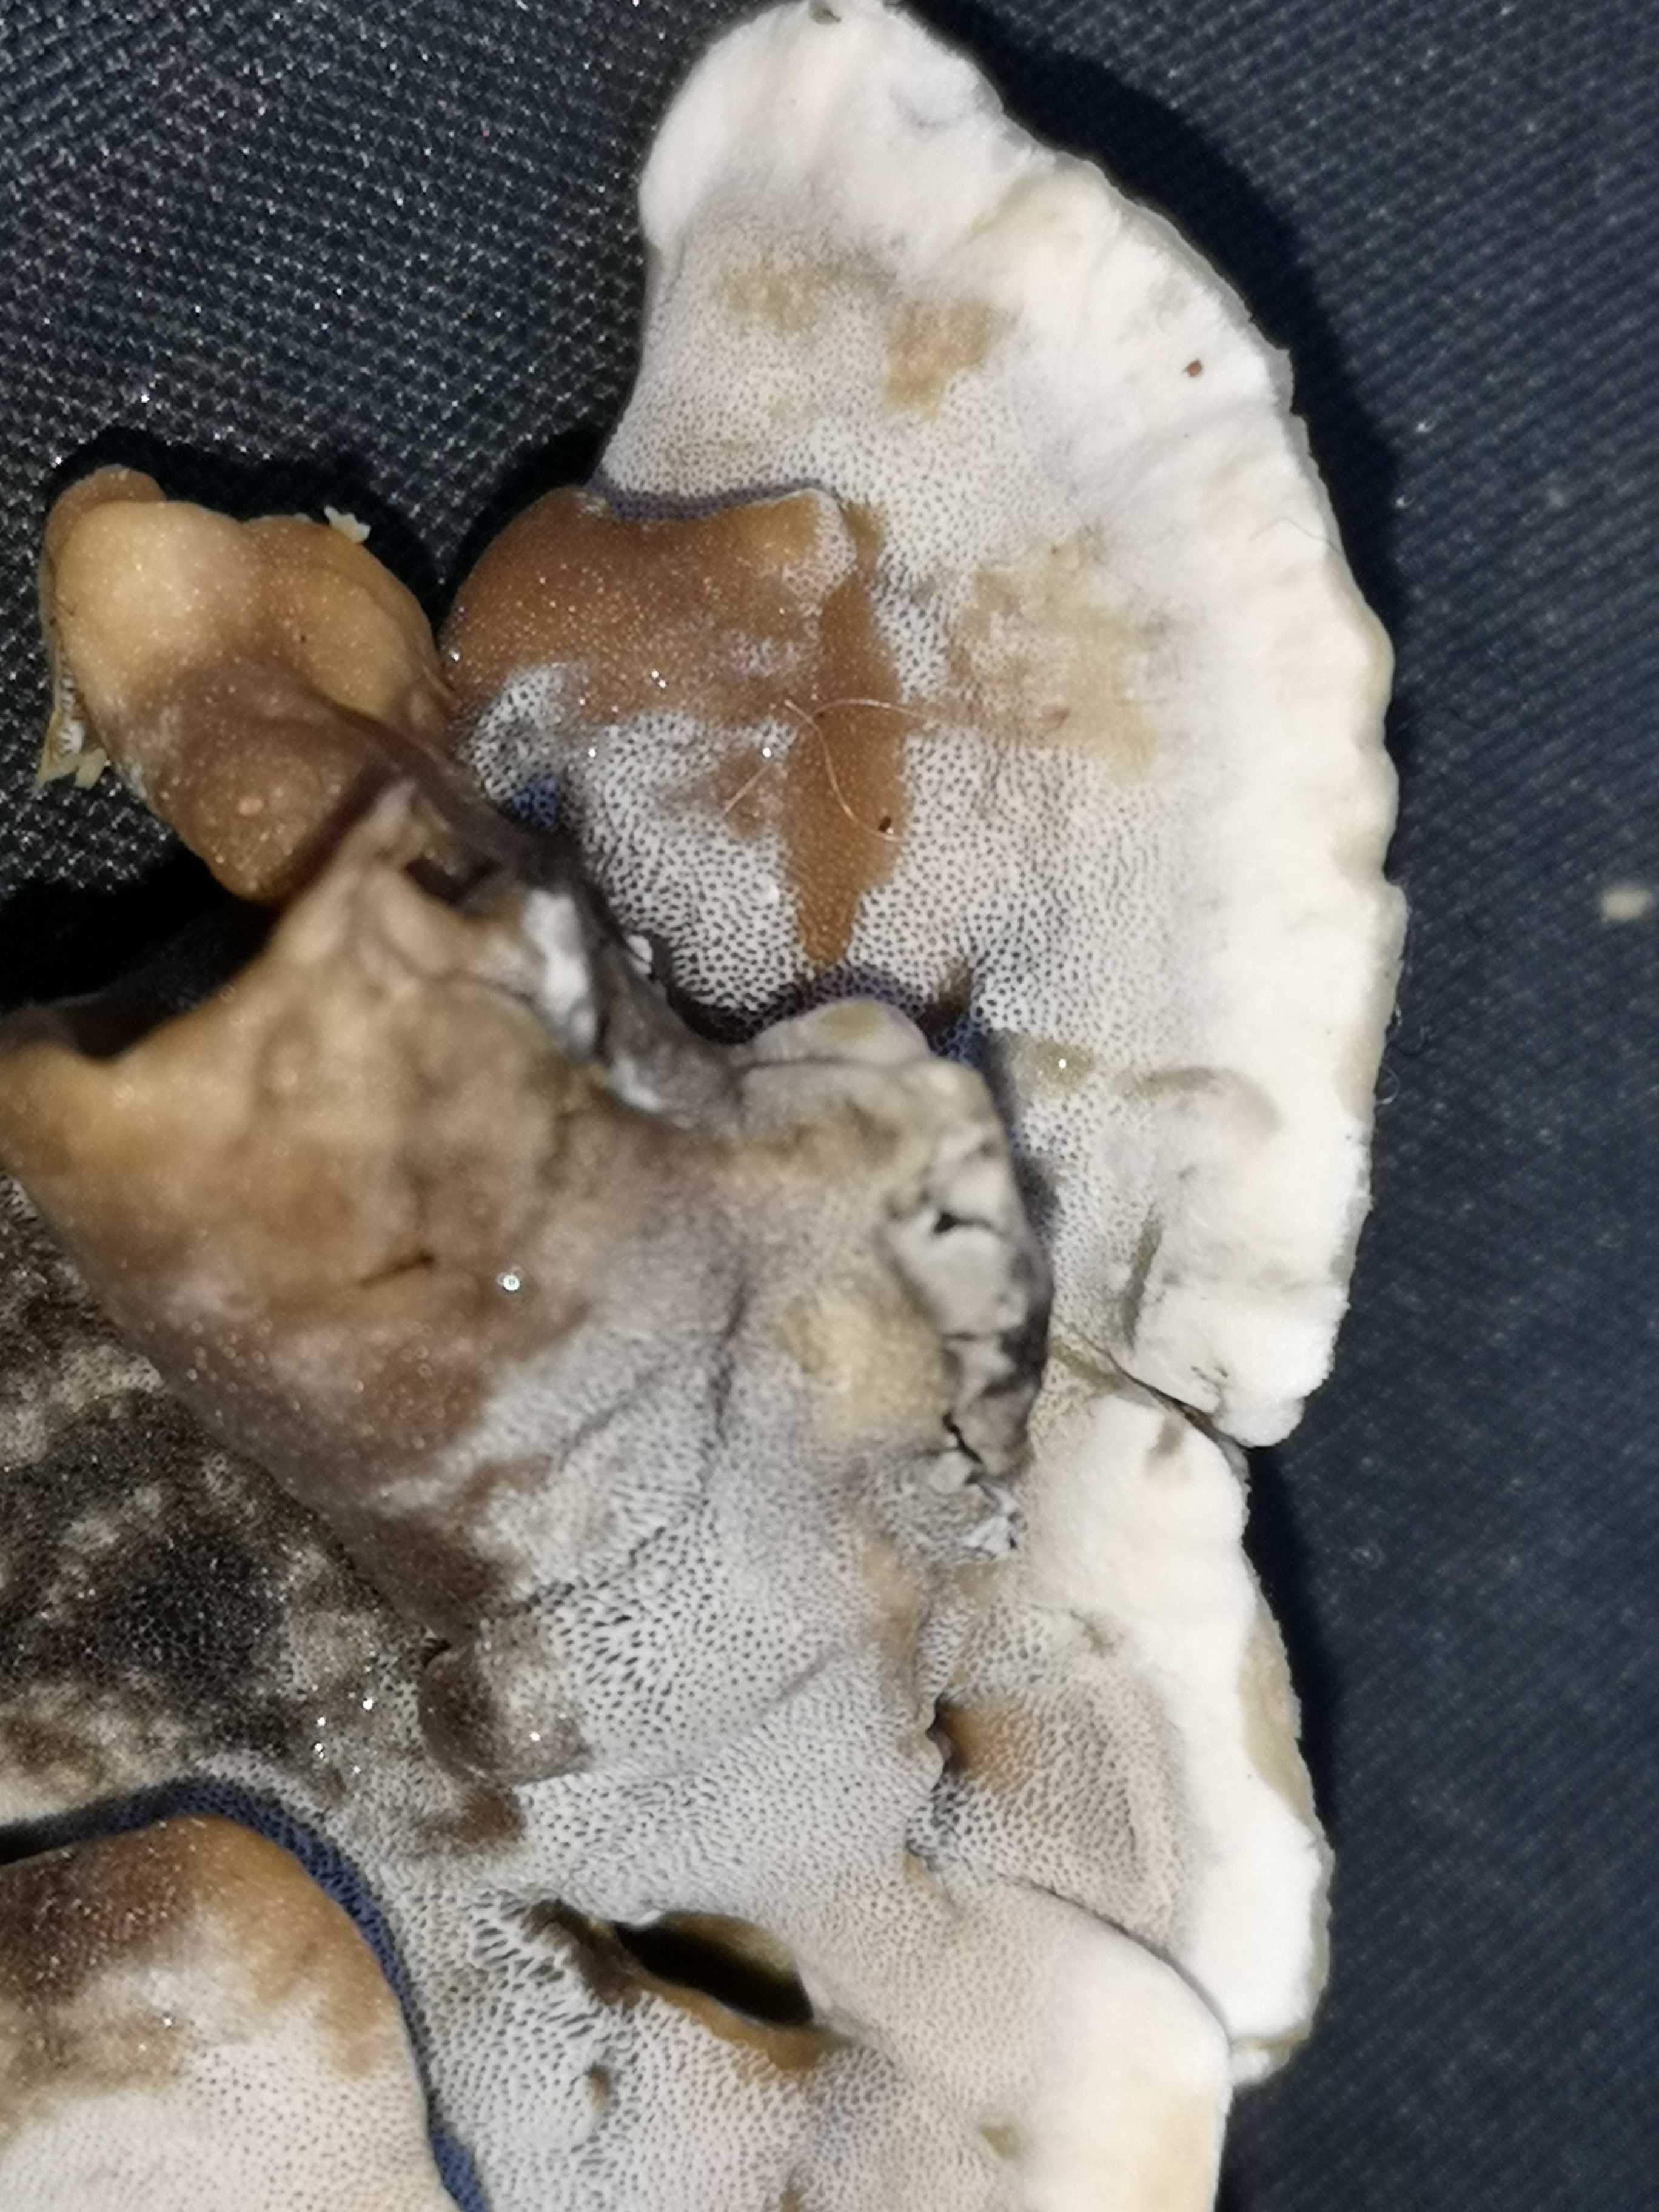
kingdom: Fungi
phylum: Basidiomycota
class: Agaricomycetes
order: Polyporales
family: Phanerochaetaceae
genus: Bjerkandera
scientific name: Bjerkandera adusta
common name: sveden sodporesvamp
